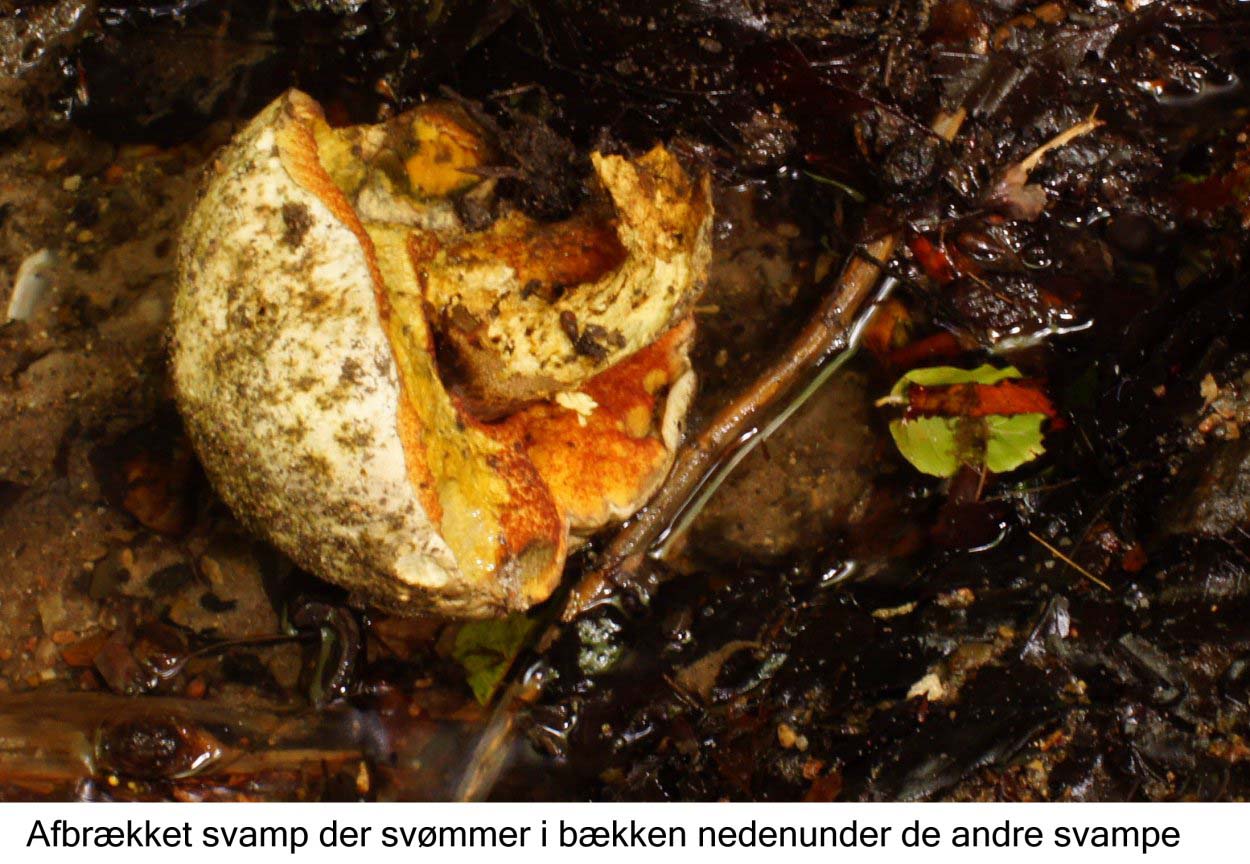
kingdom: Fungi
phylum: Basidiomycota
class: Agaricomycetes
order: Boletales
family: Boletaceae
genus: Rubroboletus
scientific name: Rubroboletus satanas
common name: Satans rørhat
